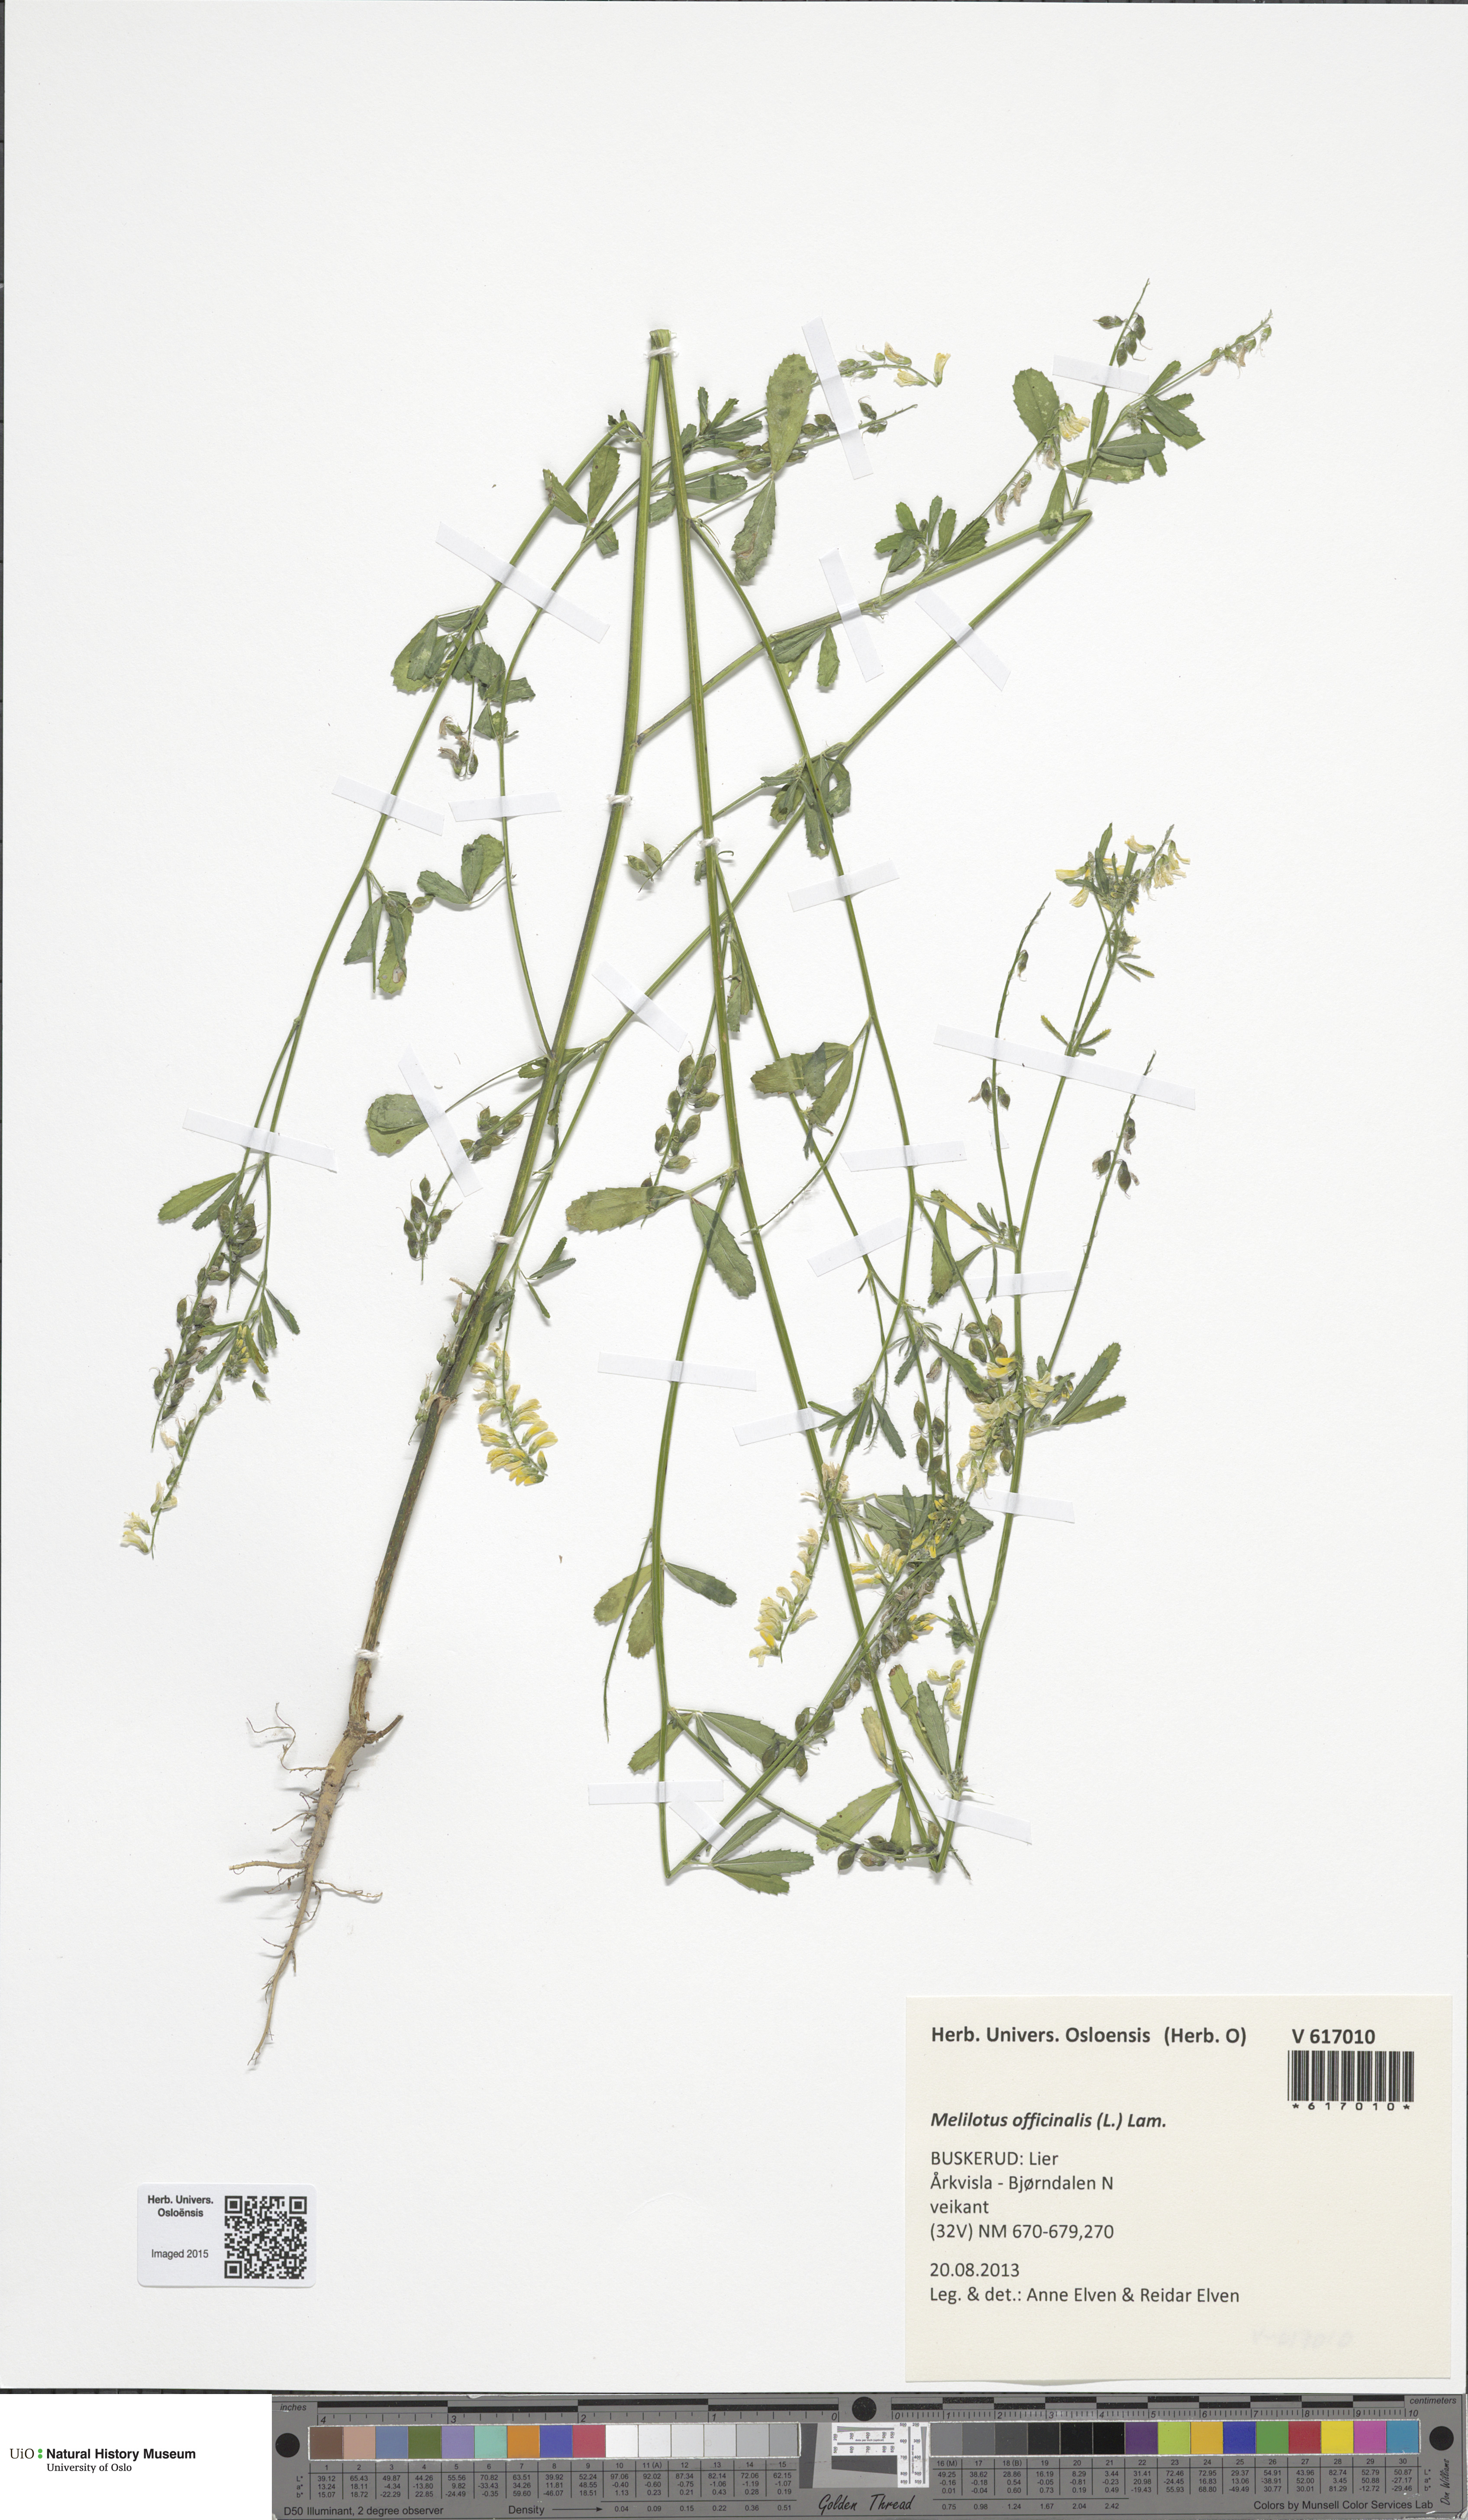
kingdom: Plantae
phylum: Tracheophyta
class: Magnoliopsida
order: Fabales
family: Fabaceae
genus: Melilotus
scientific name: Melilotus altissimus
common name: Tall melilot
